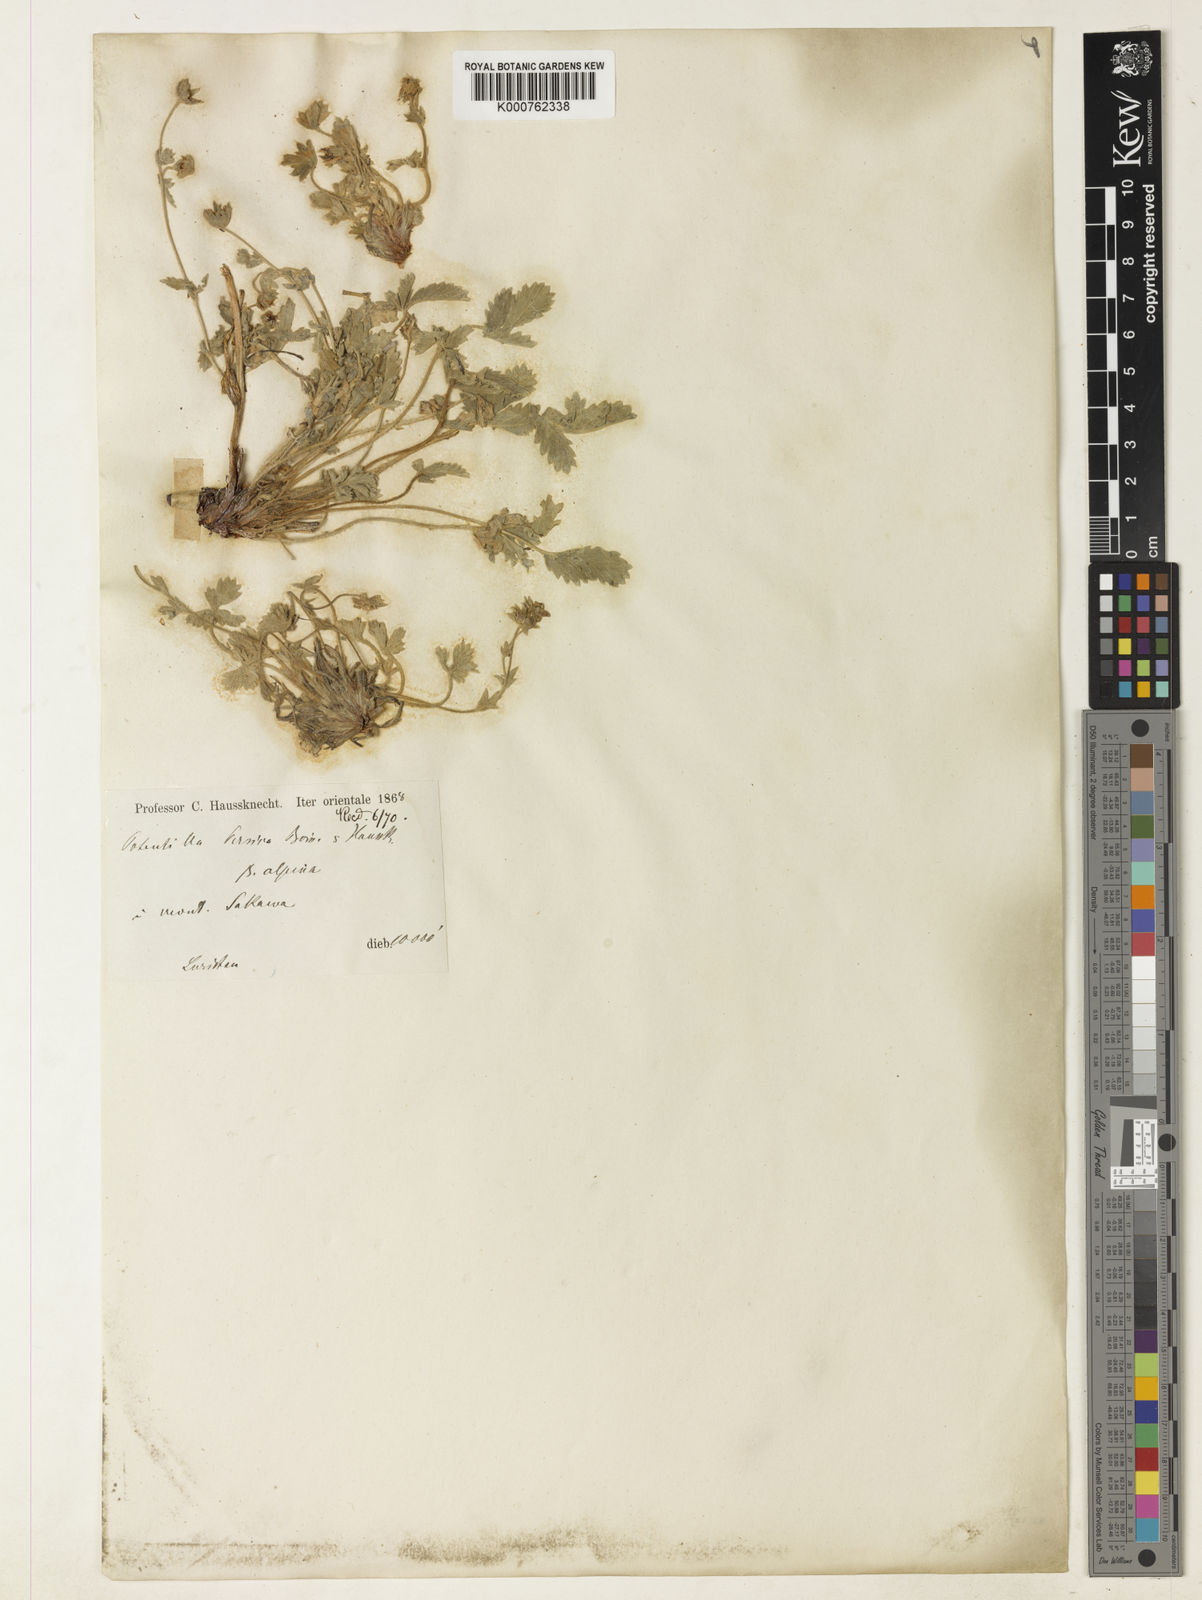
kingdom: Plantae
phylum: Tracheophyta
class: Magnoliopsida
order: Rosales
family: Rosaceae
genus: Potentilla
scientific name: Potentilla persica
